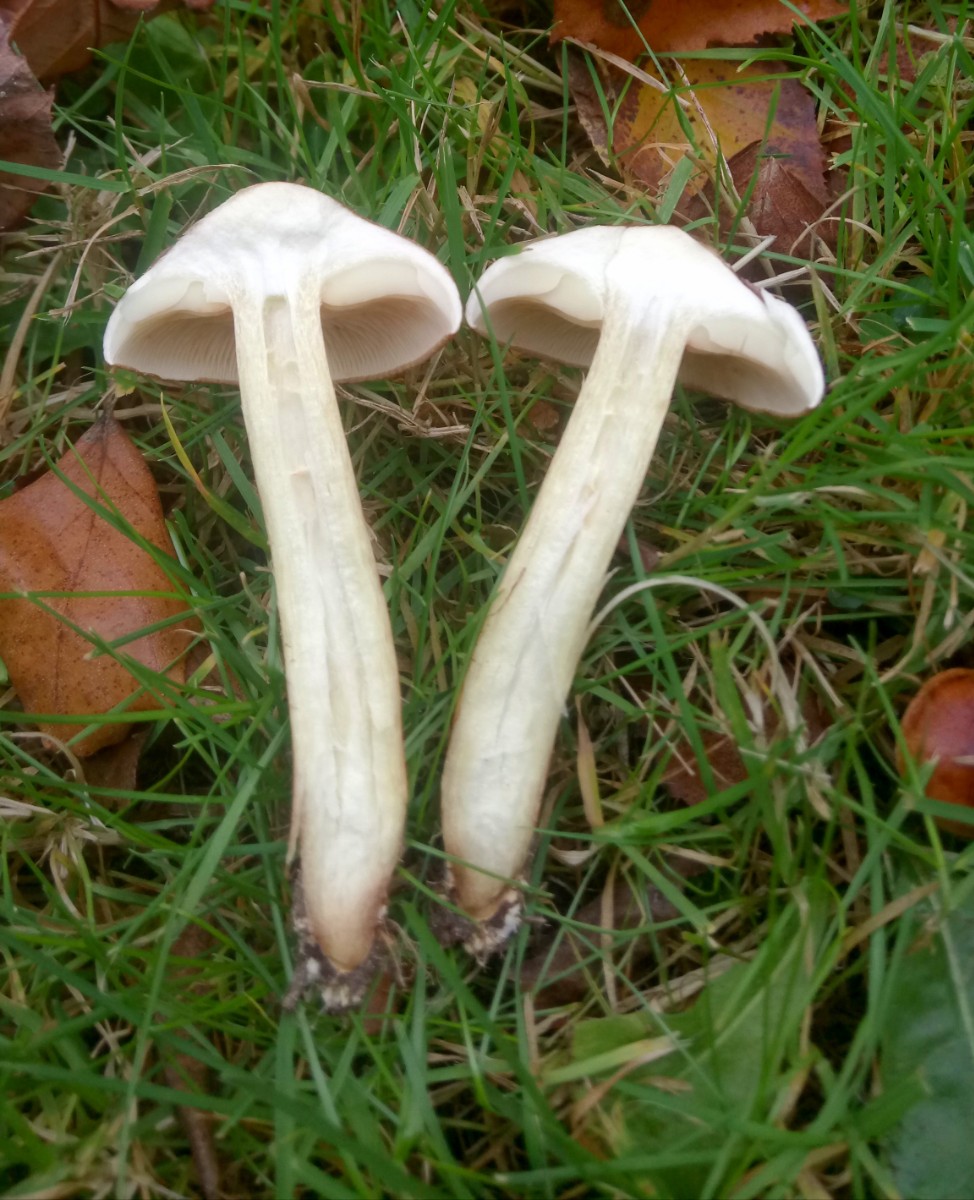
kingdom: Fungi
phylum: Basidiomycota
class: Agaricomycetes
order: Agaricales
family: Tricholomataceae
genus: Tricholoma
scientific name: Tricholoma fulvum
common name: birke-ridderhat
